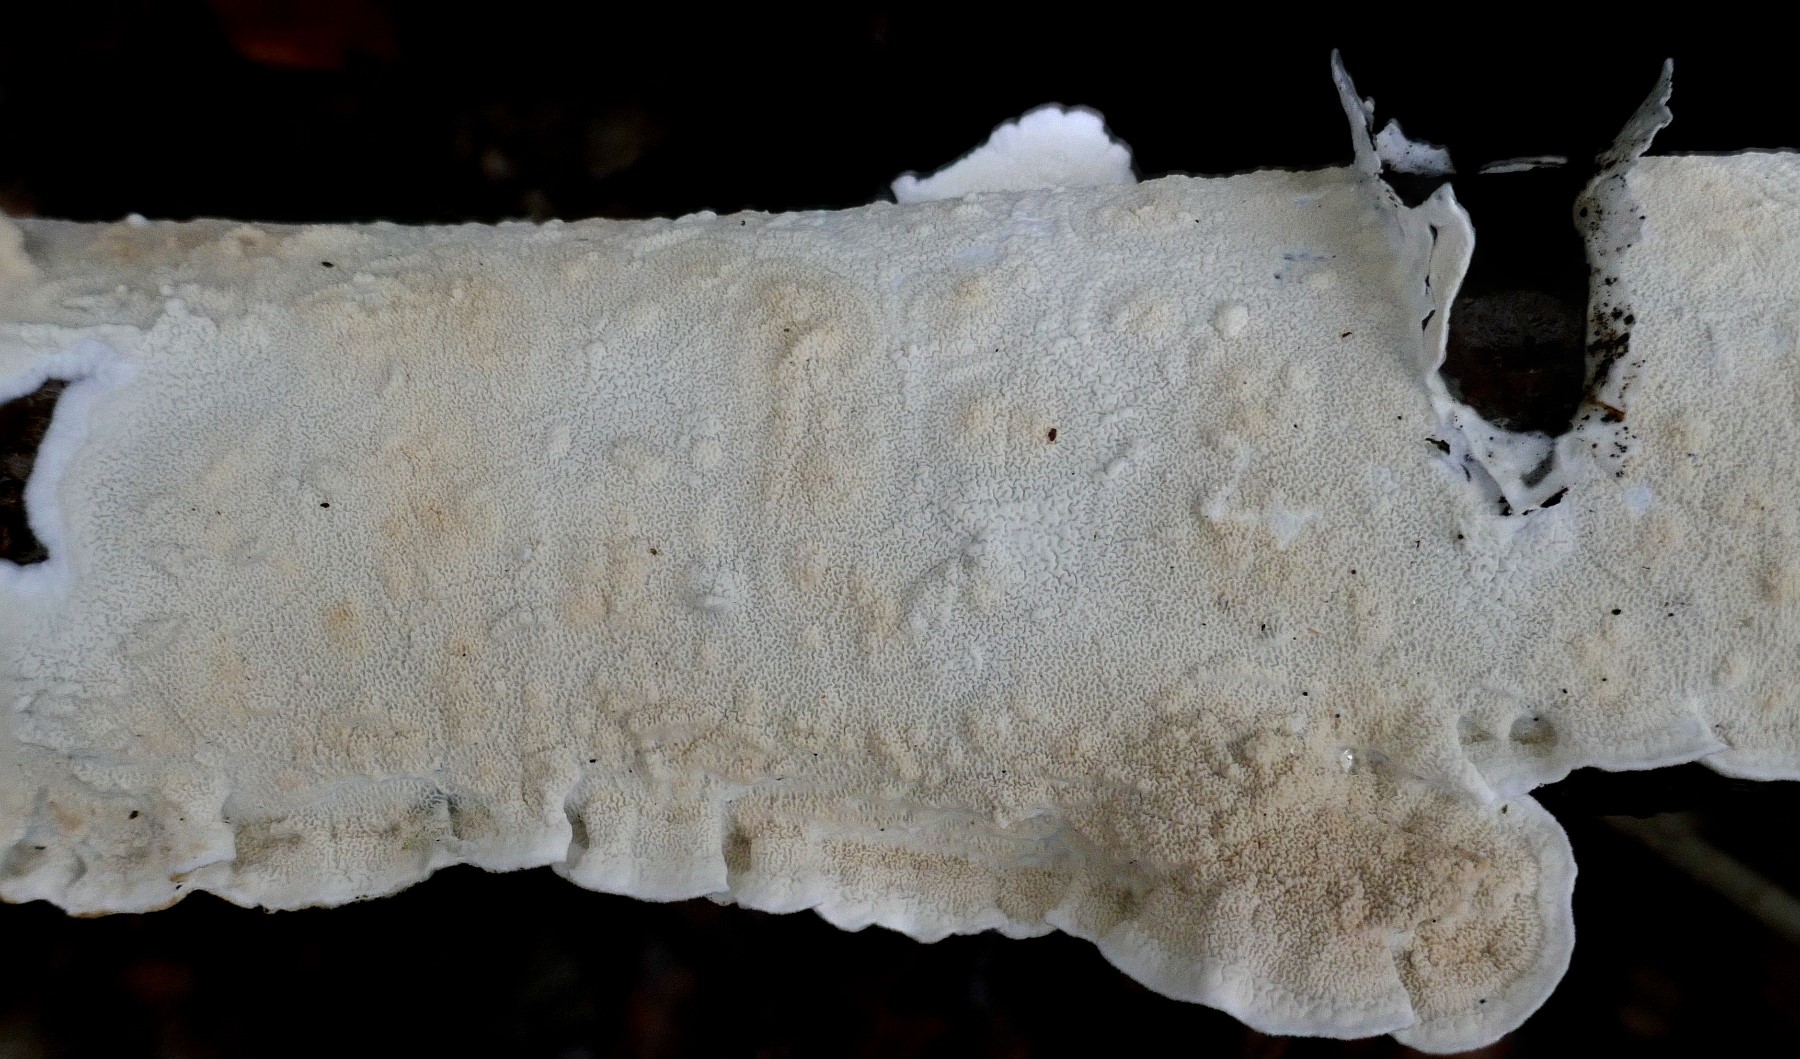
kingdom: Fungi
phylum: Basidiomycota
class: Agaricomycetes
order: Polyporales
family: Irpicaceae
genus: Byssomerulius
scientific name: Byssomerulius corium
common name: læder-åresvamp
